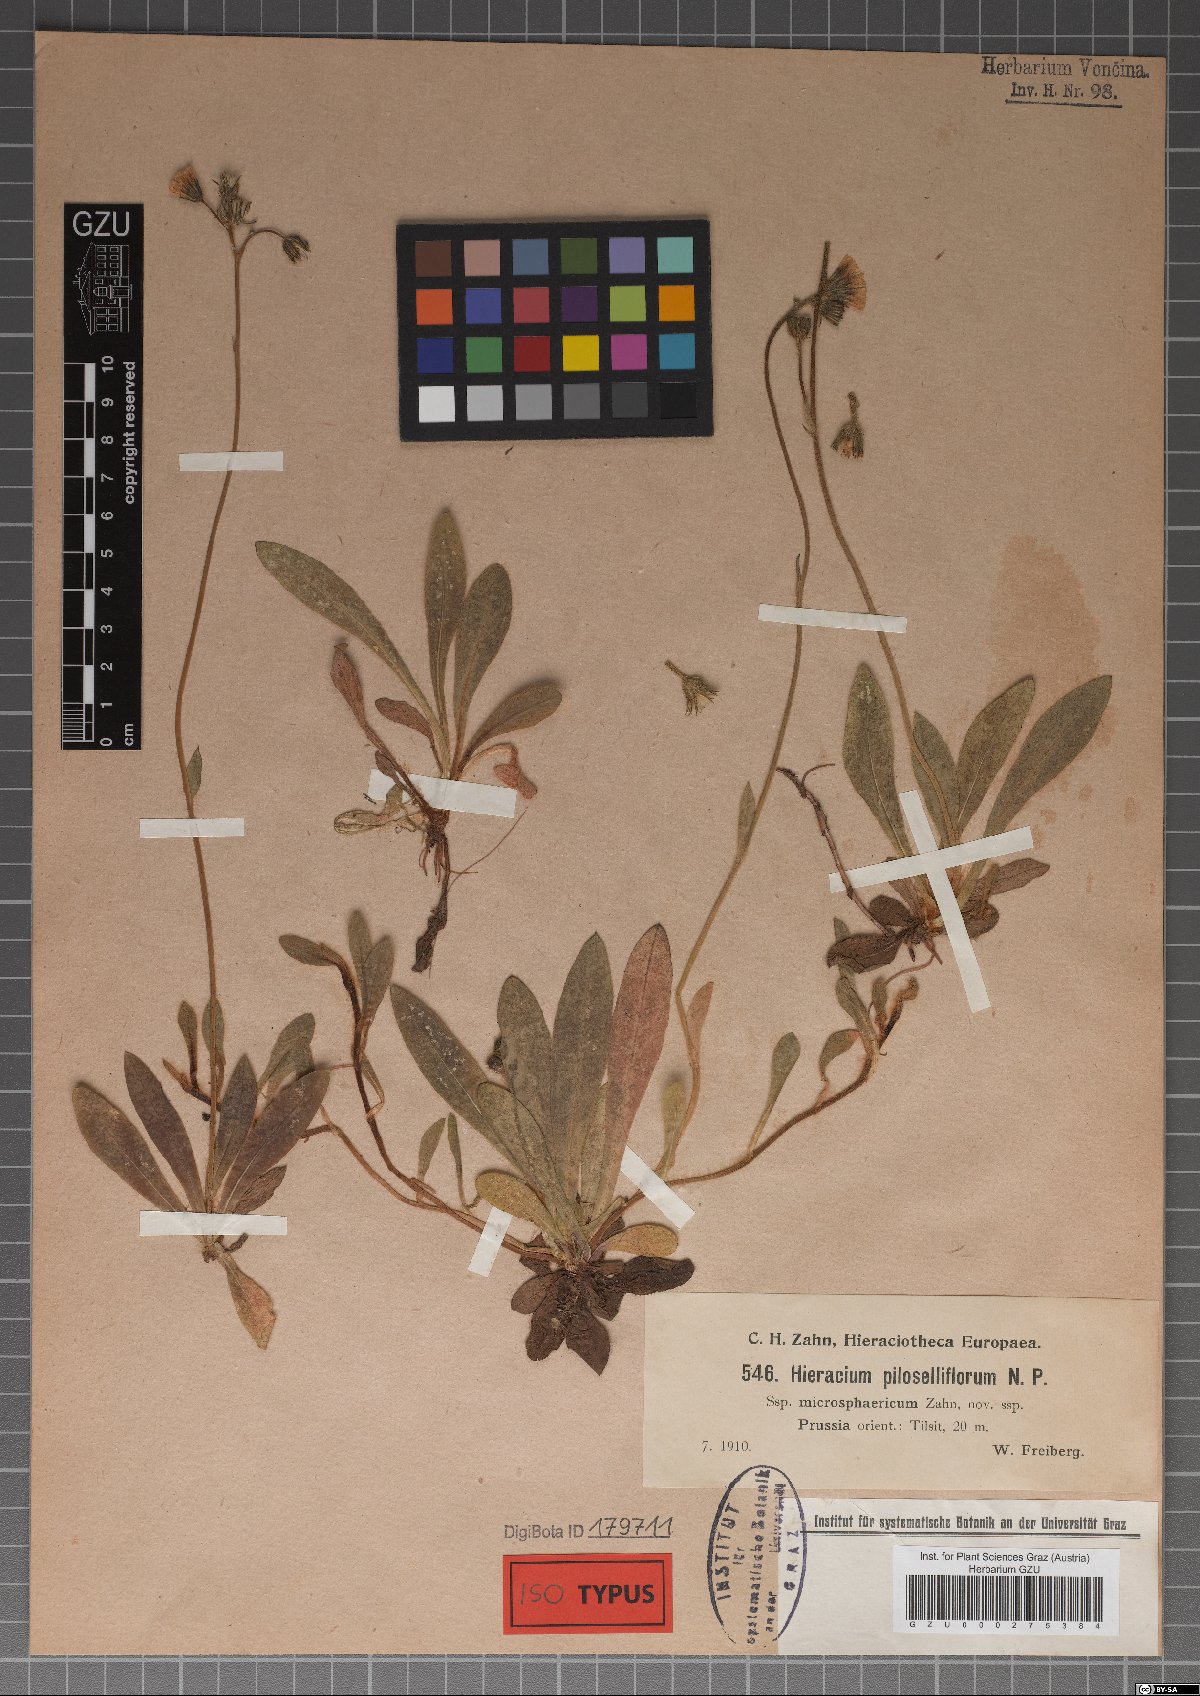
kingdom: Plantae
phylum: Tracheophyta
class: Magnoliopsida
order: Asterales
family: Asteraceae
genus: Pilosella
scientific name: Pilosella piloselliflora
